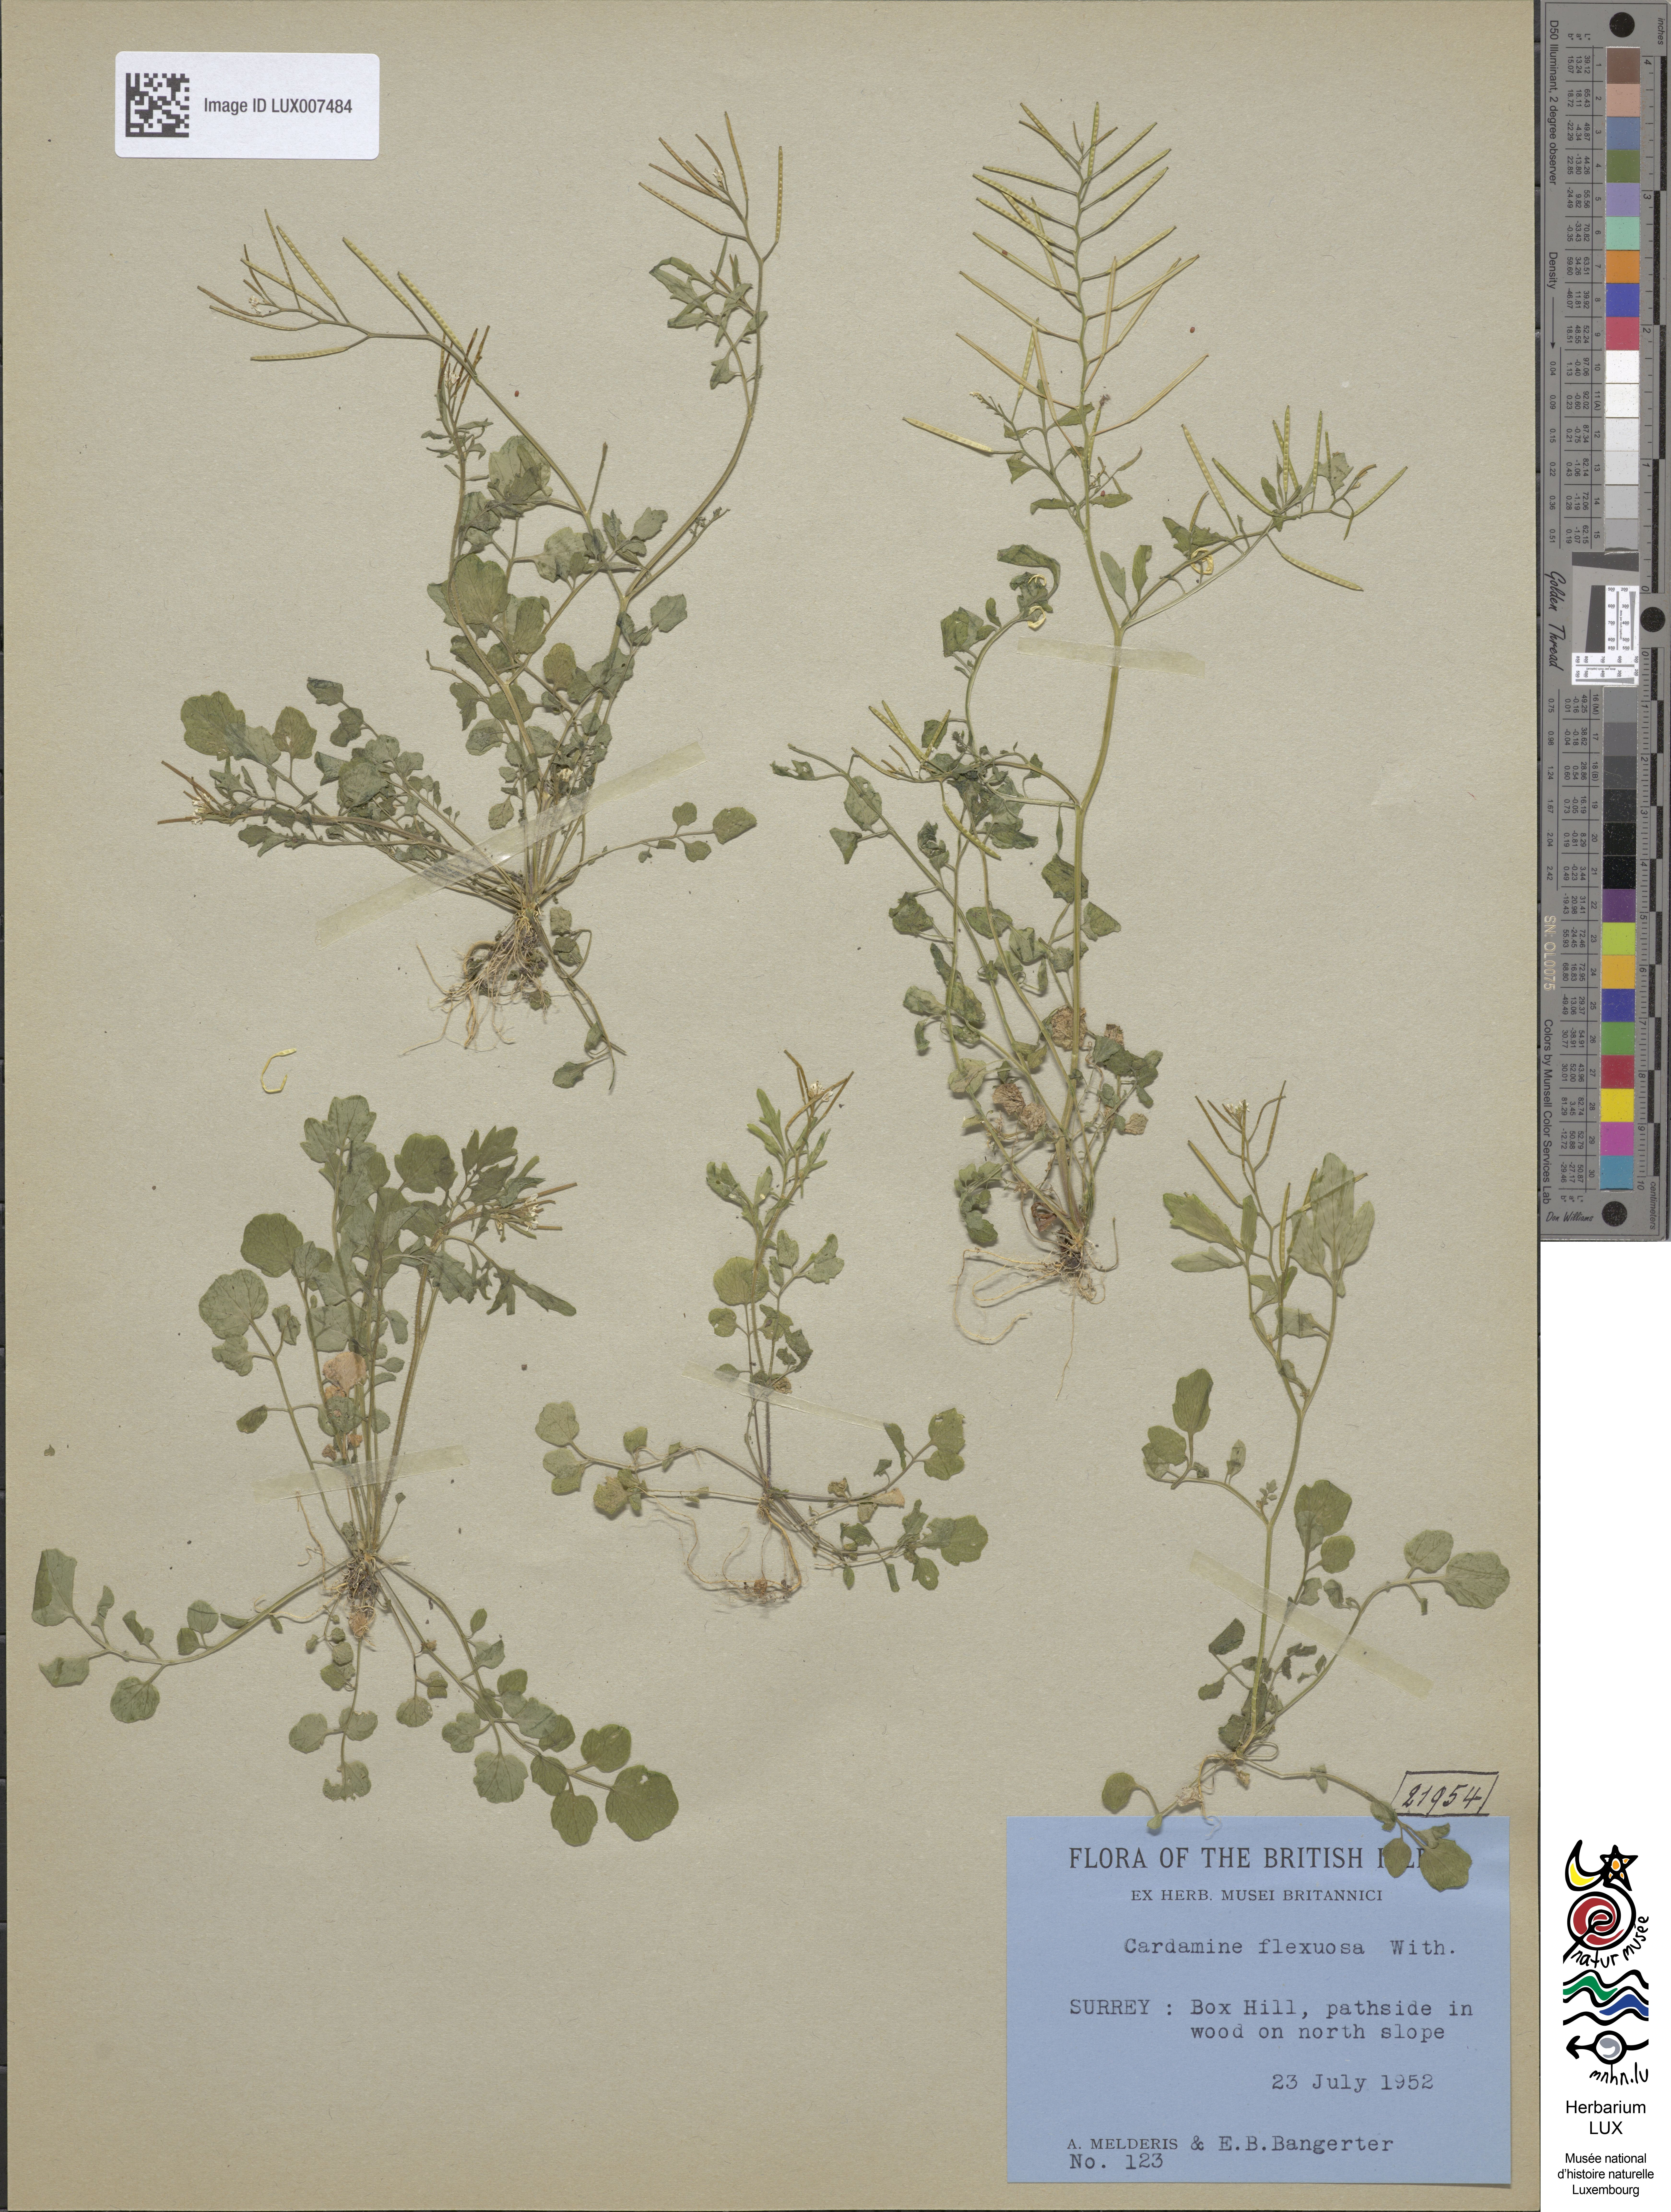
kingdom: Plantae
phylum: Tracheophyta
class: Magnoliopsida
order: Brassicales
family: Brassicaceae
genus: Cardamine
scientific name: Cardamine flexuosa
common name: Woodland bittercress
